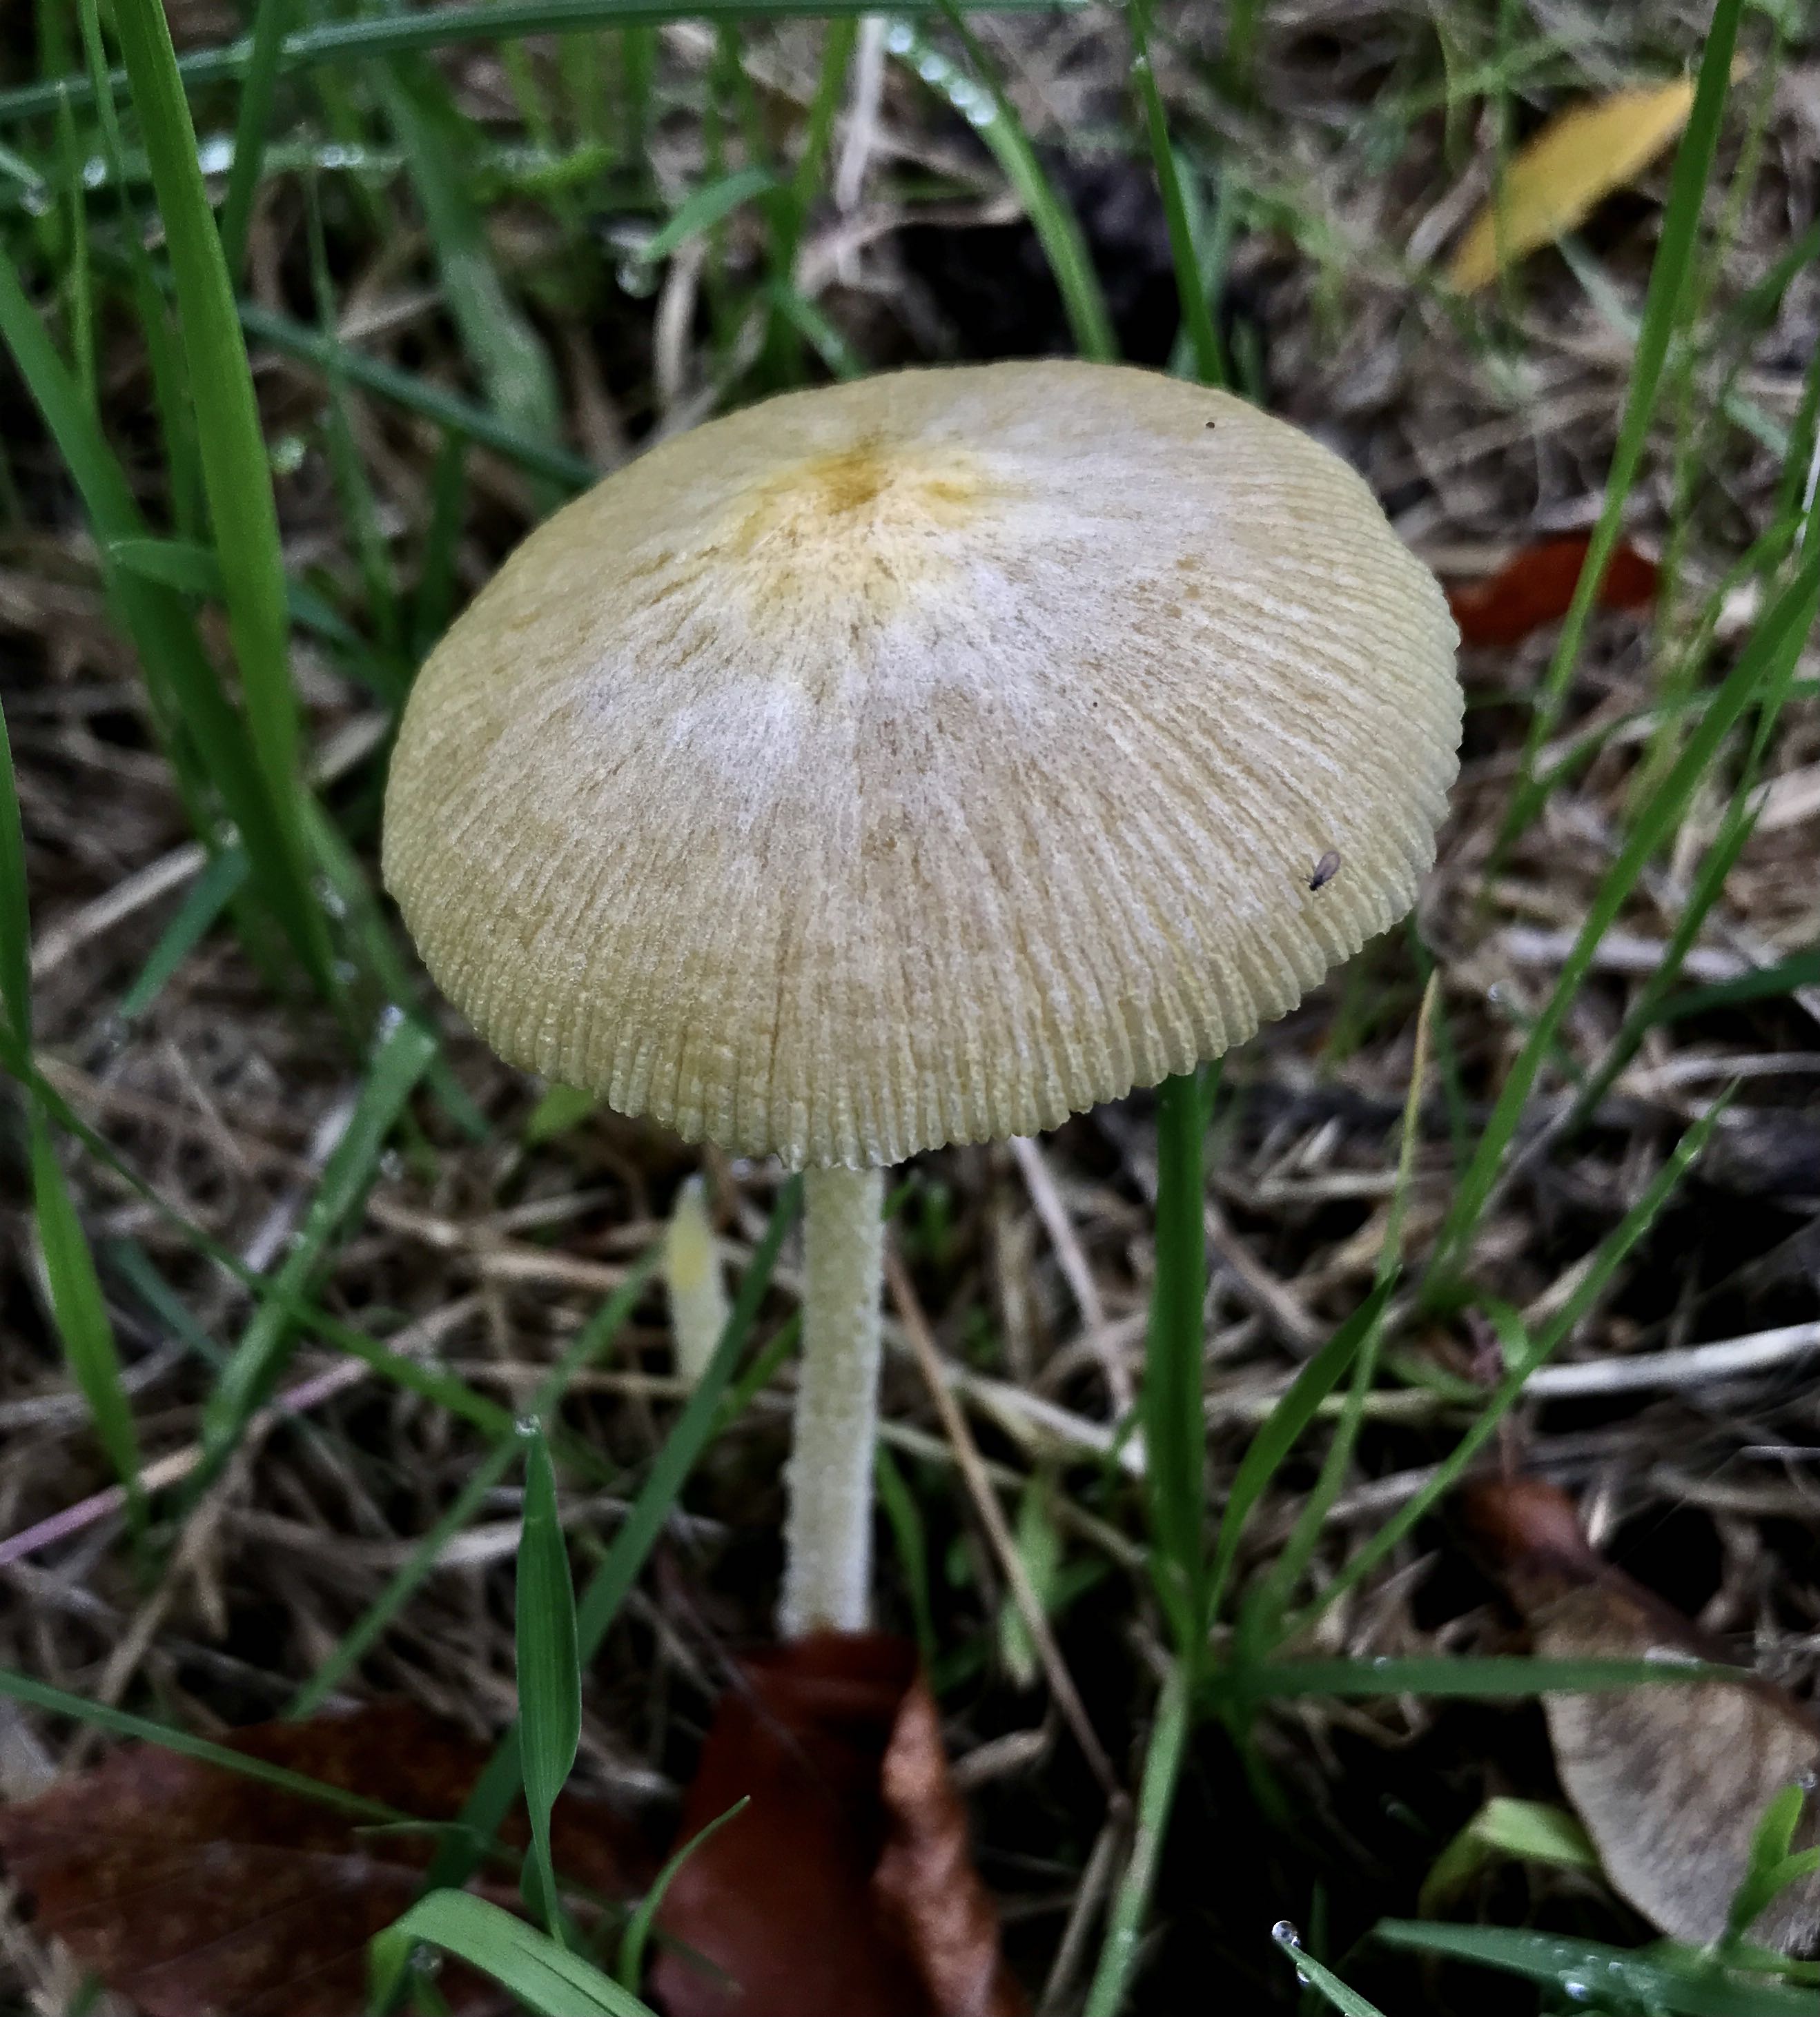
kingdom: Fungi
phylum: Basidiomycota
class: Agaricomycetes
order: Agaricales
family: Bolbitiaceae
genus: Bolbitius
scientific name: Bolbitius titubans
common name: almindelig gulhat
